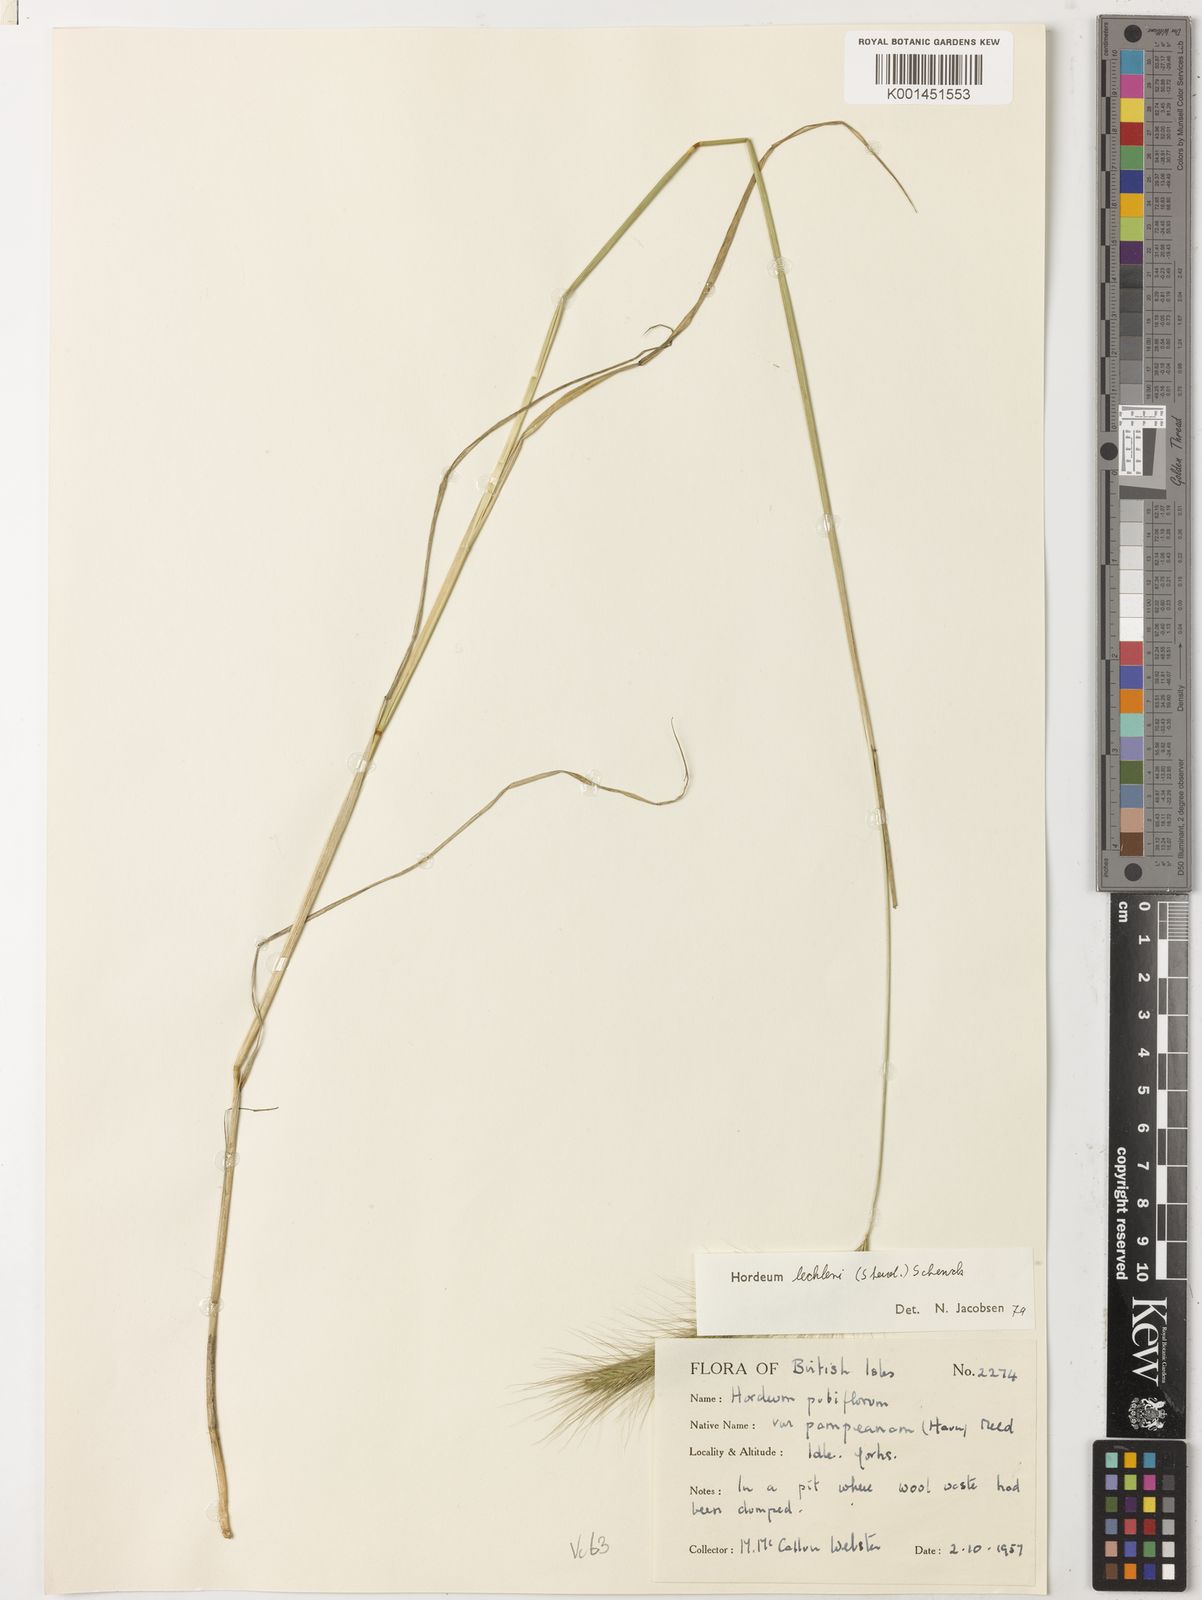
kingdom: Plantae
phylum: Tracheophyta
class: Liliopsida
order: Poales
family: Poaceae
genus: Hordeum
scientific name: Hordeum lechleri
